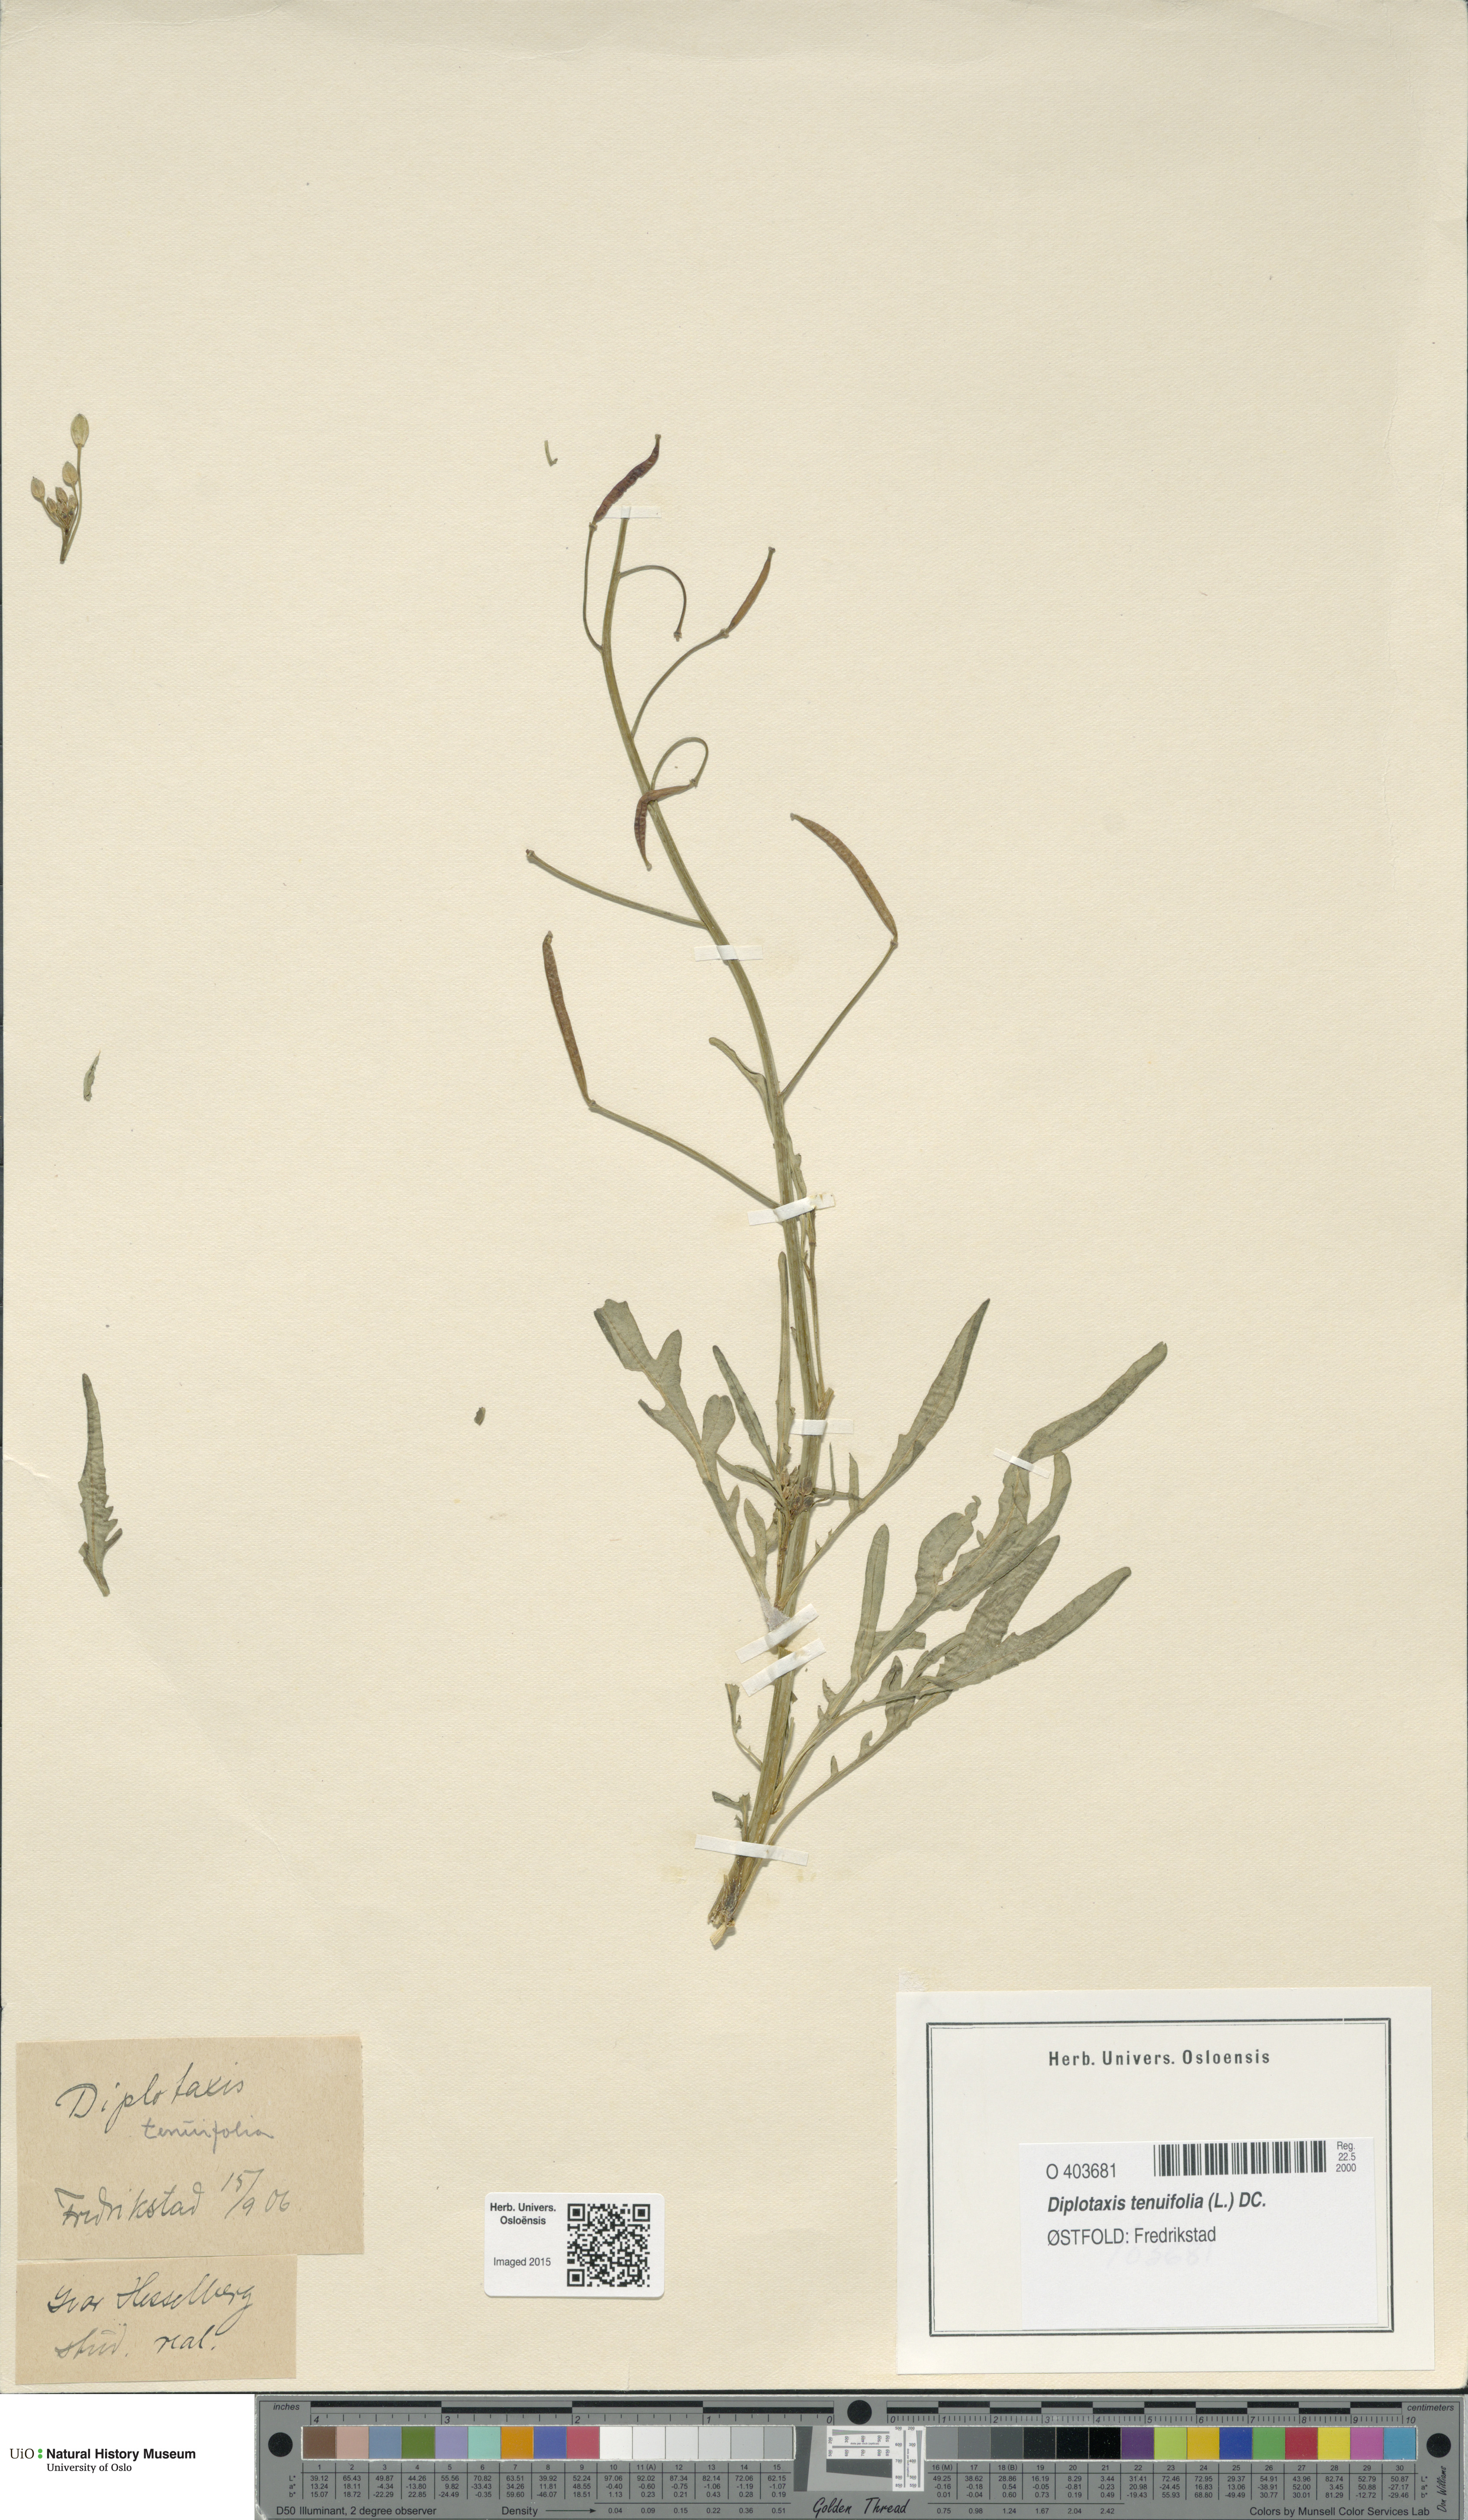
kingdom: Plantae
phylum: Tracheophyta
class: Magnoliopsida
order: Brassicales
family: Brassicaceae
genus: Diplotaxis
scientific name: Diplotaxis tenuifolia
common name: Perennial wall-rocket
